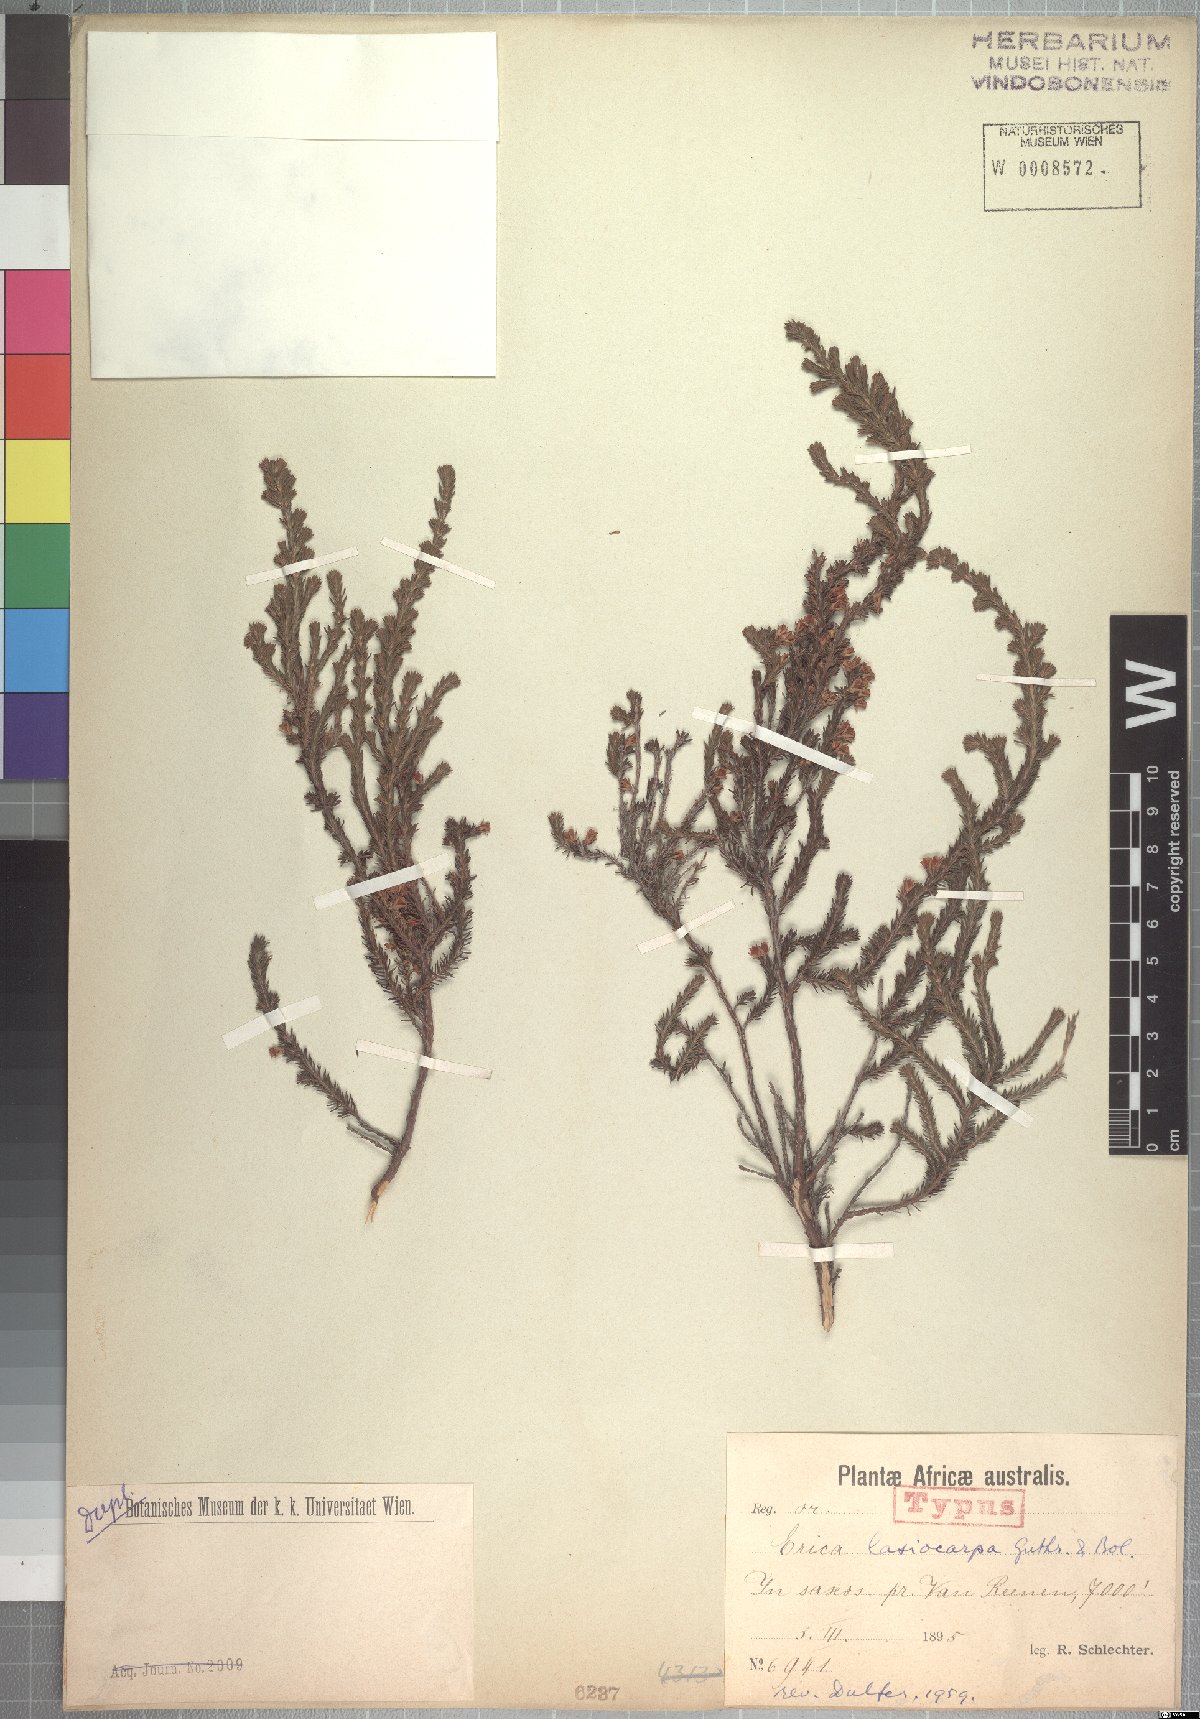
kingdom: Plantae
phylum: Tracheophyta
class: Magnoliopsida
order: Ericales
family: Ericaceae
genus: Erica
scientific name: Erica lasiocarpa
